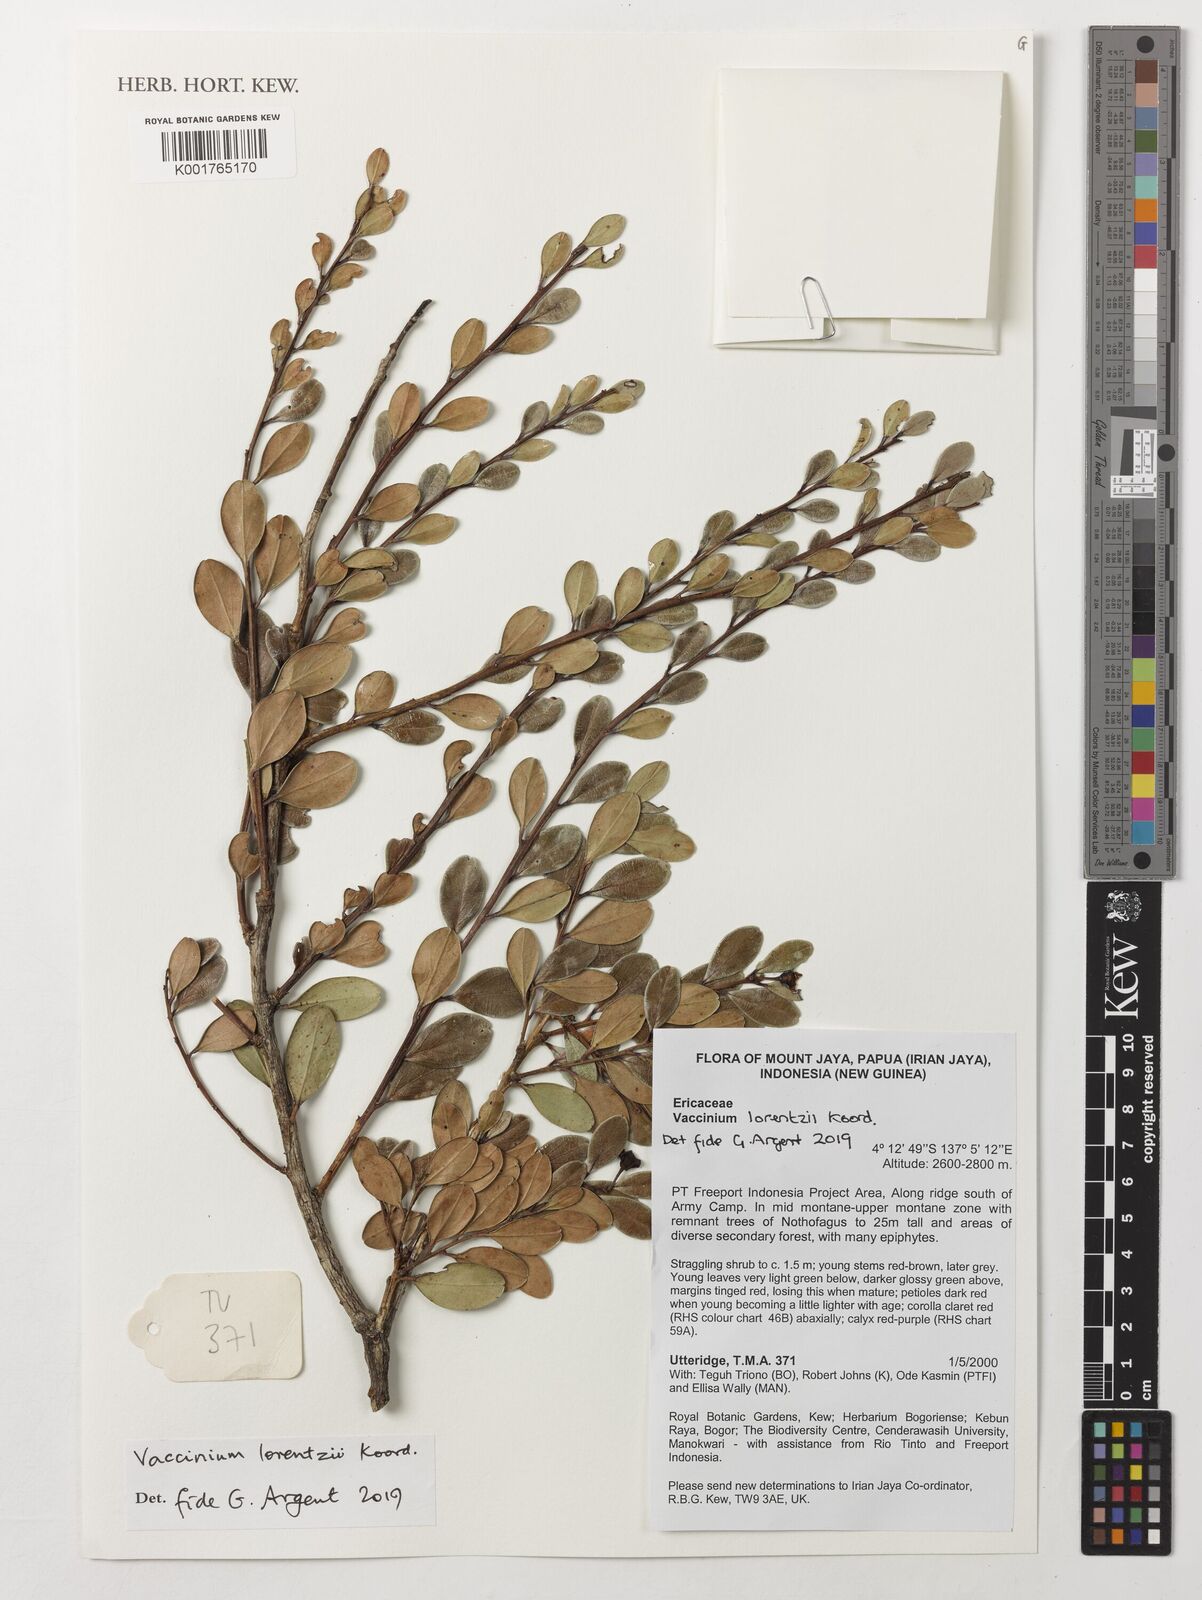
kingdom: Plantae
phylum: Tracheophyta
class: Magnoliopsida
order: Ericales
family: Ericaceae
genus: Vaccinium
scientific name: Vaccinium lorentzii
